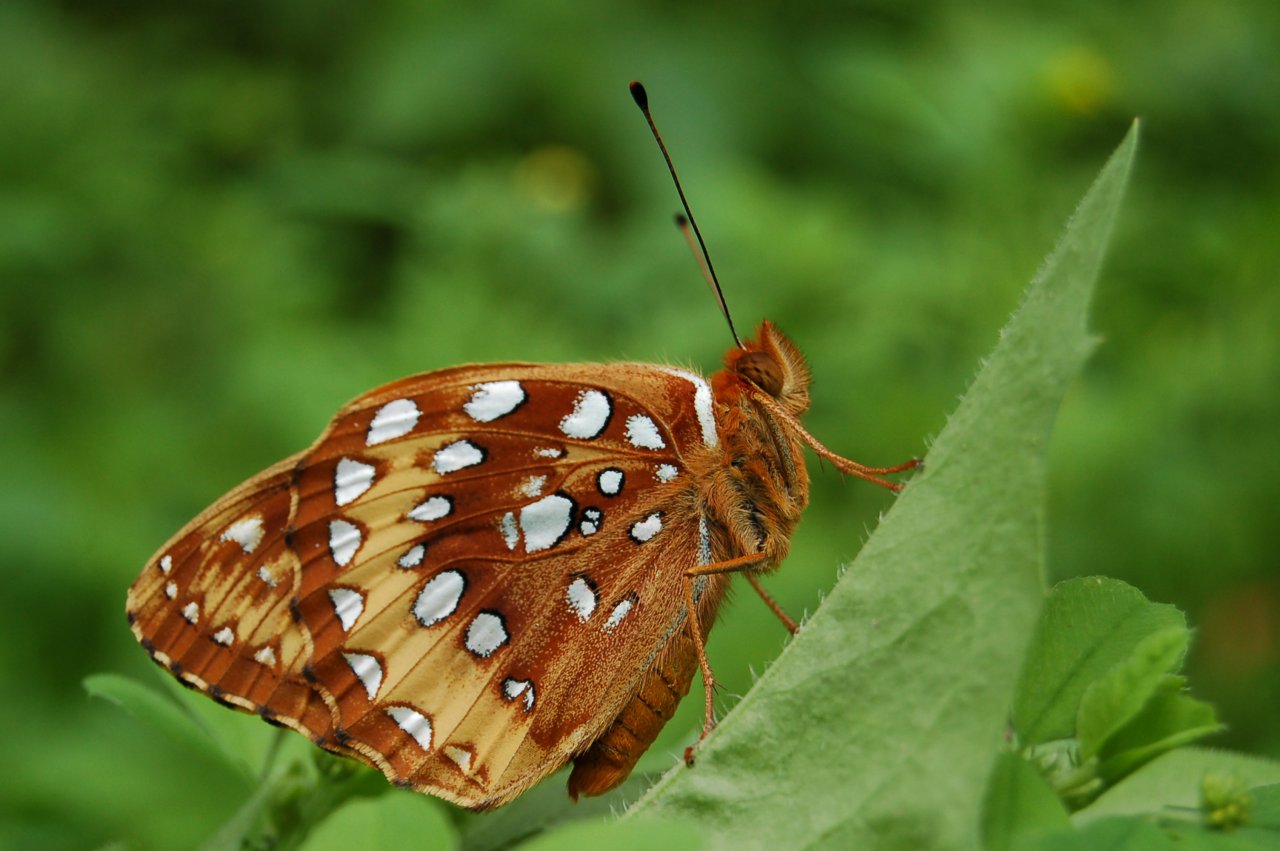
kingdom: Animalia
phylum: Arthropoda
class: Insecta
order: Lepidoptera
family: Nymphalidae
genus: Speyeria
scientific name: Speyeria cybele
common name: Great Spangled Fritillary
